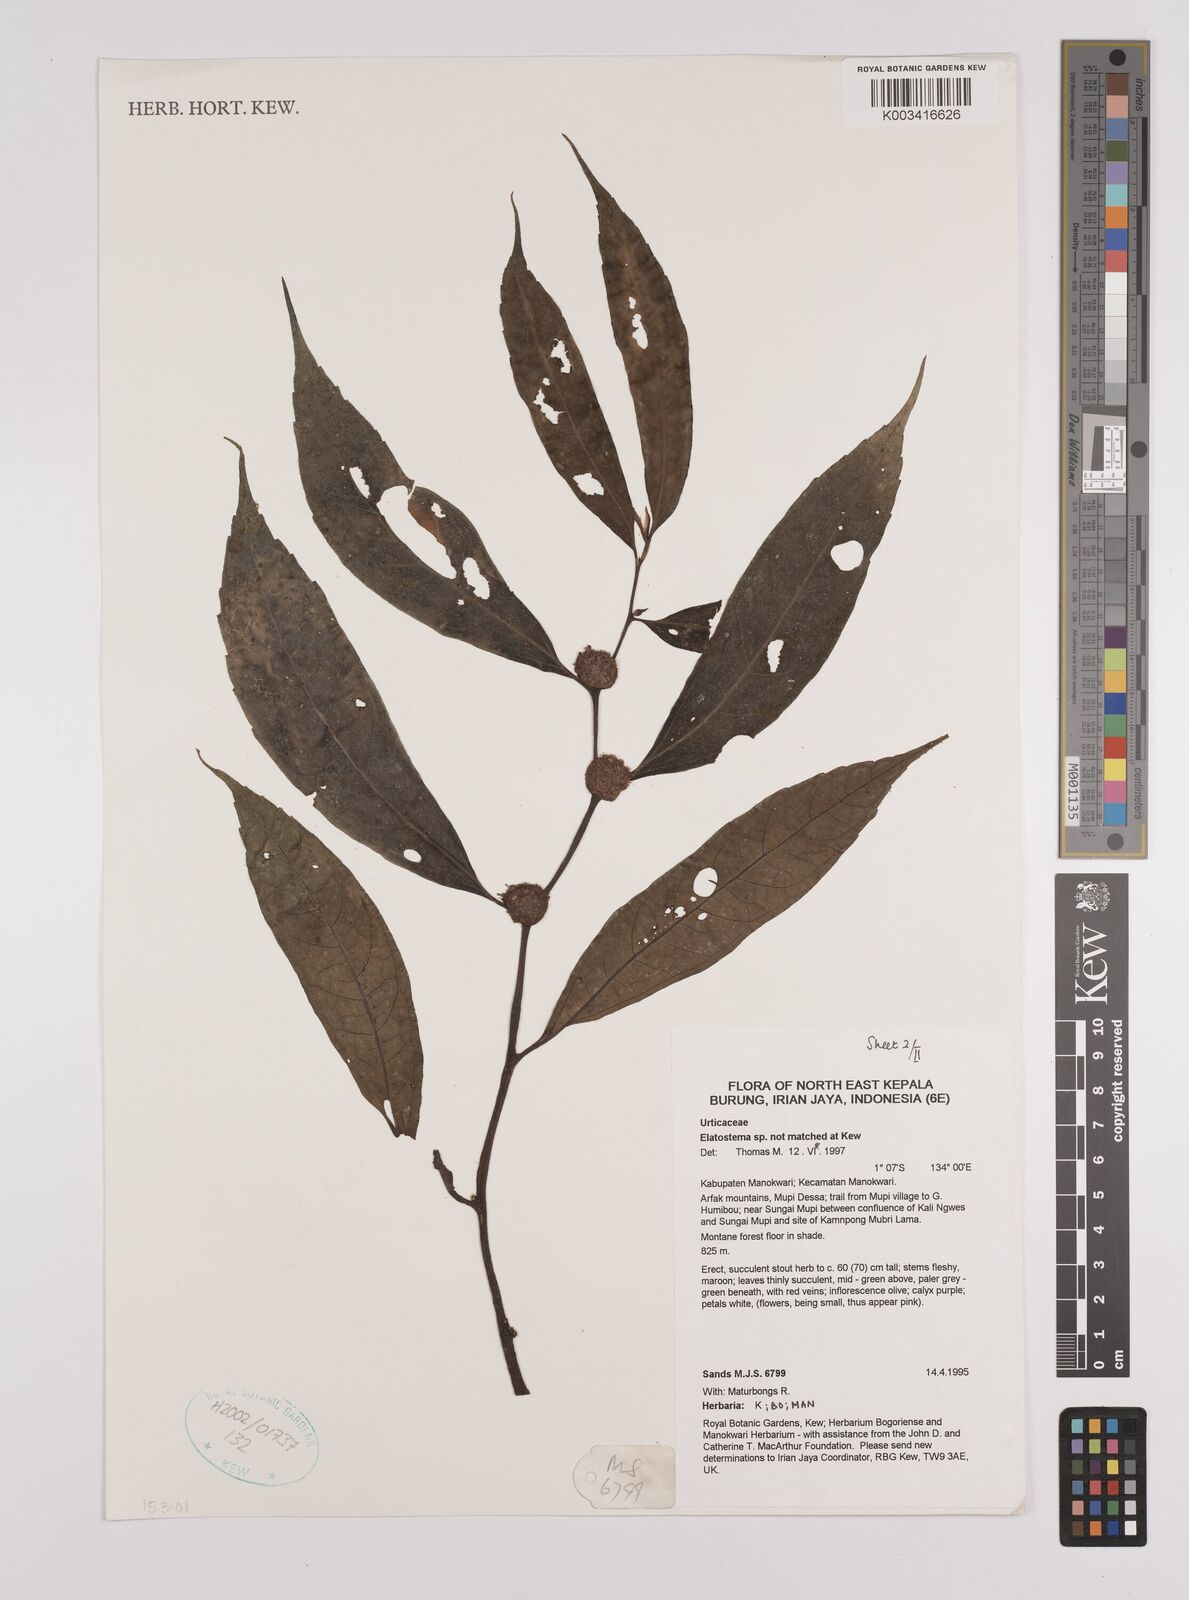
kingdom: Plantae
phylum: Tracheophyta
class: Magnoliopsida
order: Rosales
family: Urticaceae
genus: Elatostema
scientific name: Elatostema
